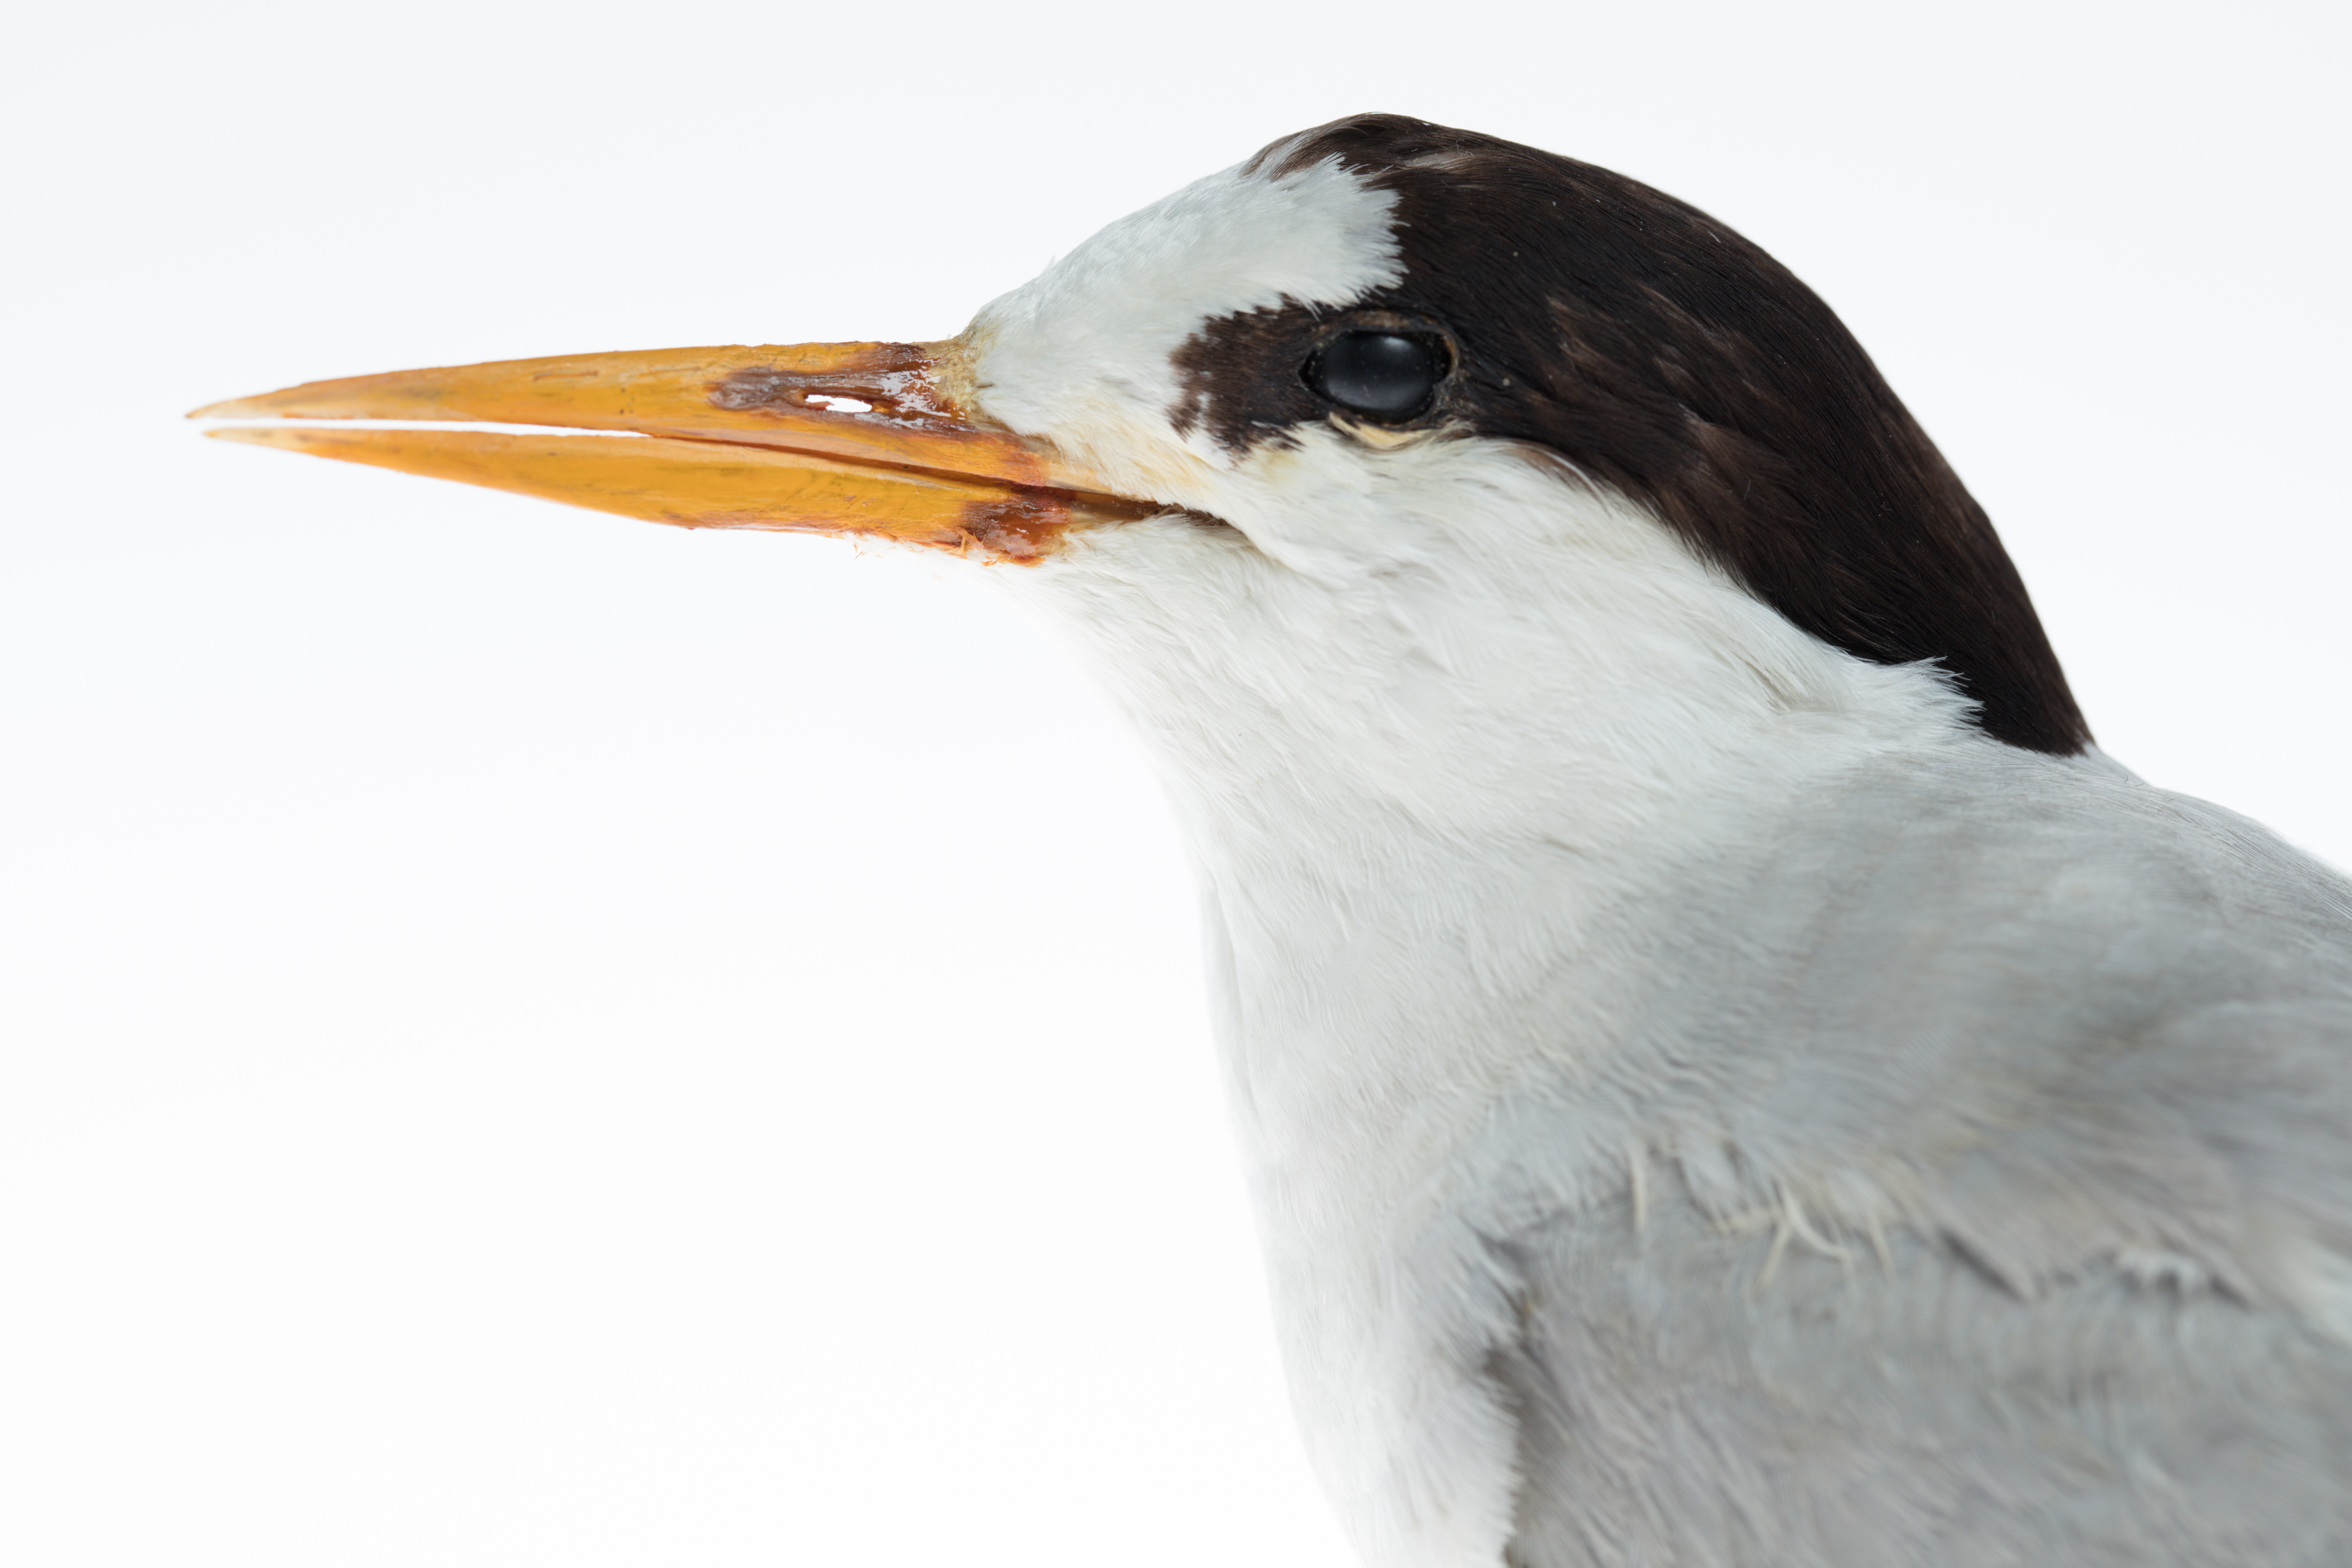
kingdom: Animalia
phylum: Chordata
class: Aves
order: Charadriiformes
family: Laridae
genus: Sternula
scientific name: Sternula nereis
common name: Fairy tern
